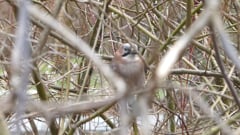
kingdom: Animalia
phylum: Chordata
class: Aves
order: Passeriformes
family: Corvidae
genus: Garrulus
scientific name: Garrulus glandarius
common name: Eurasian jay
